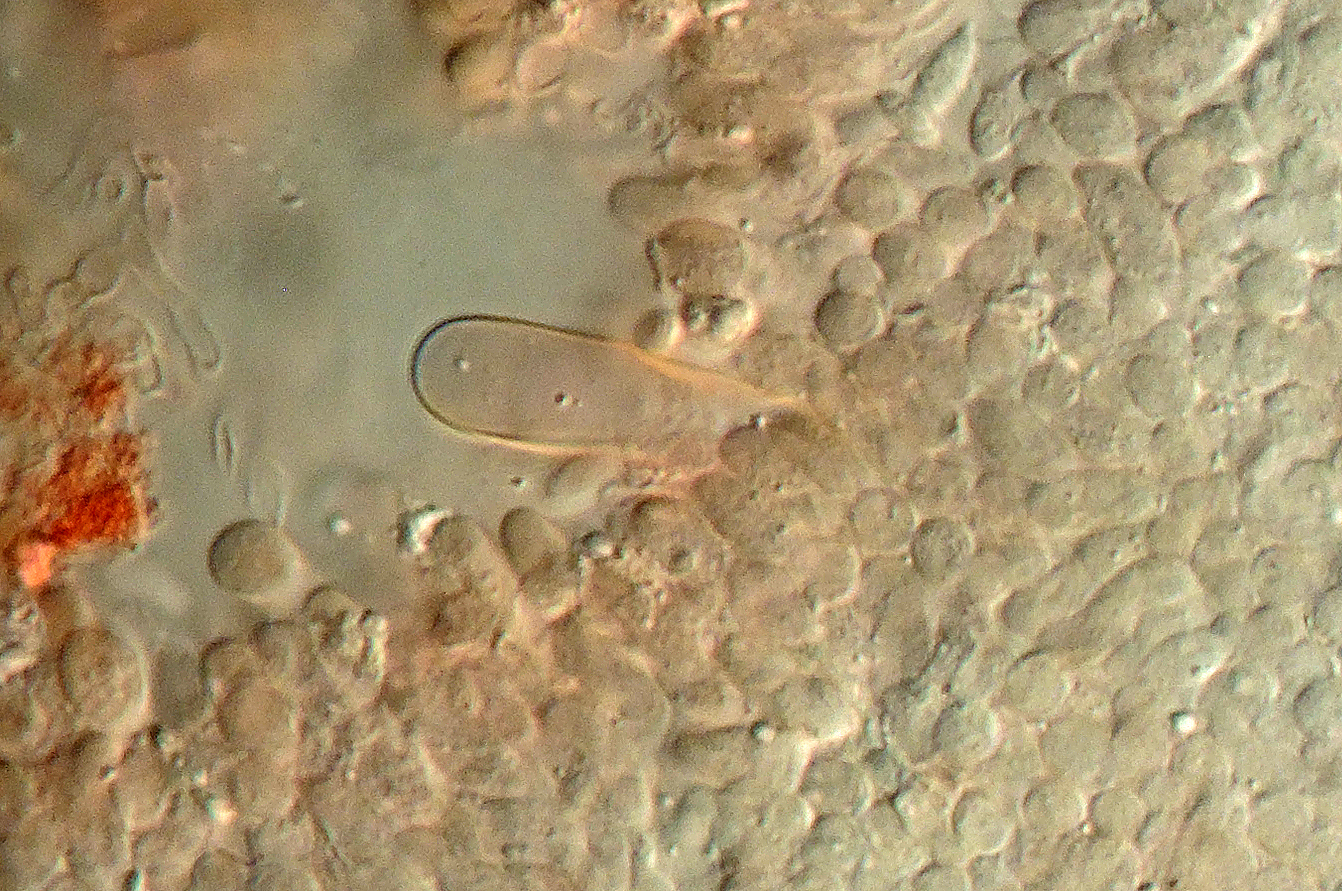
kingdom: Fungi
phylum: Basidiomycota
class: Agaricomycetes
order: Agaricales
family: Physalacriaceae
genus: Flammulina
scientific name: Flammulina rossica
